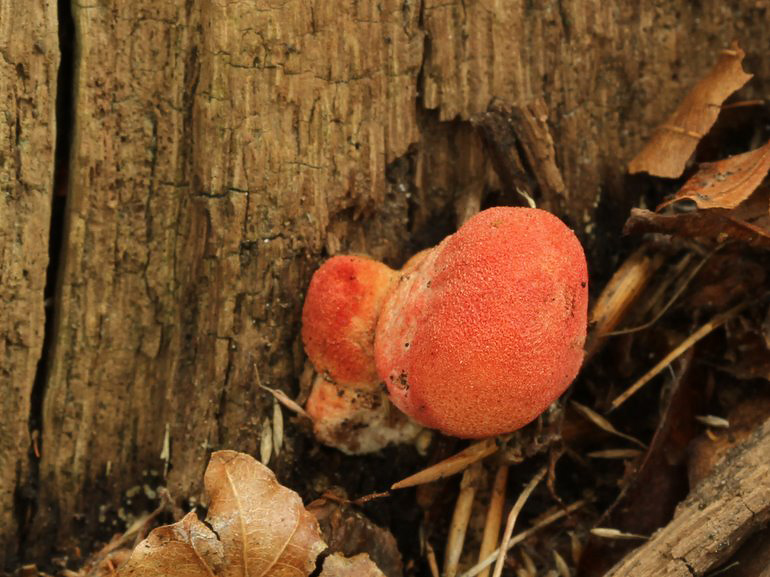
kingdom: Fungi
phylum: Basidiomycota
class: Agaricomycetes
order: Agaricales
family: Fistulinaceae
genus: Fistulina
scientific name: Fistulina hepatica
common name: oksetunge
